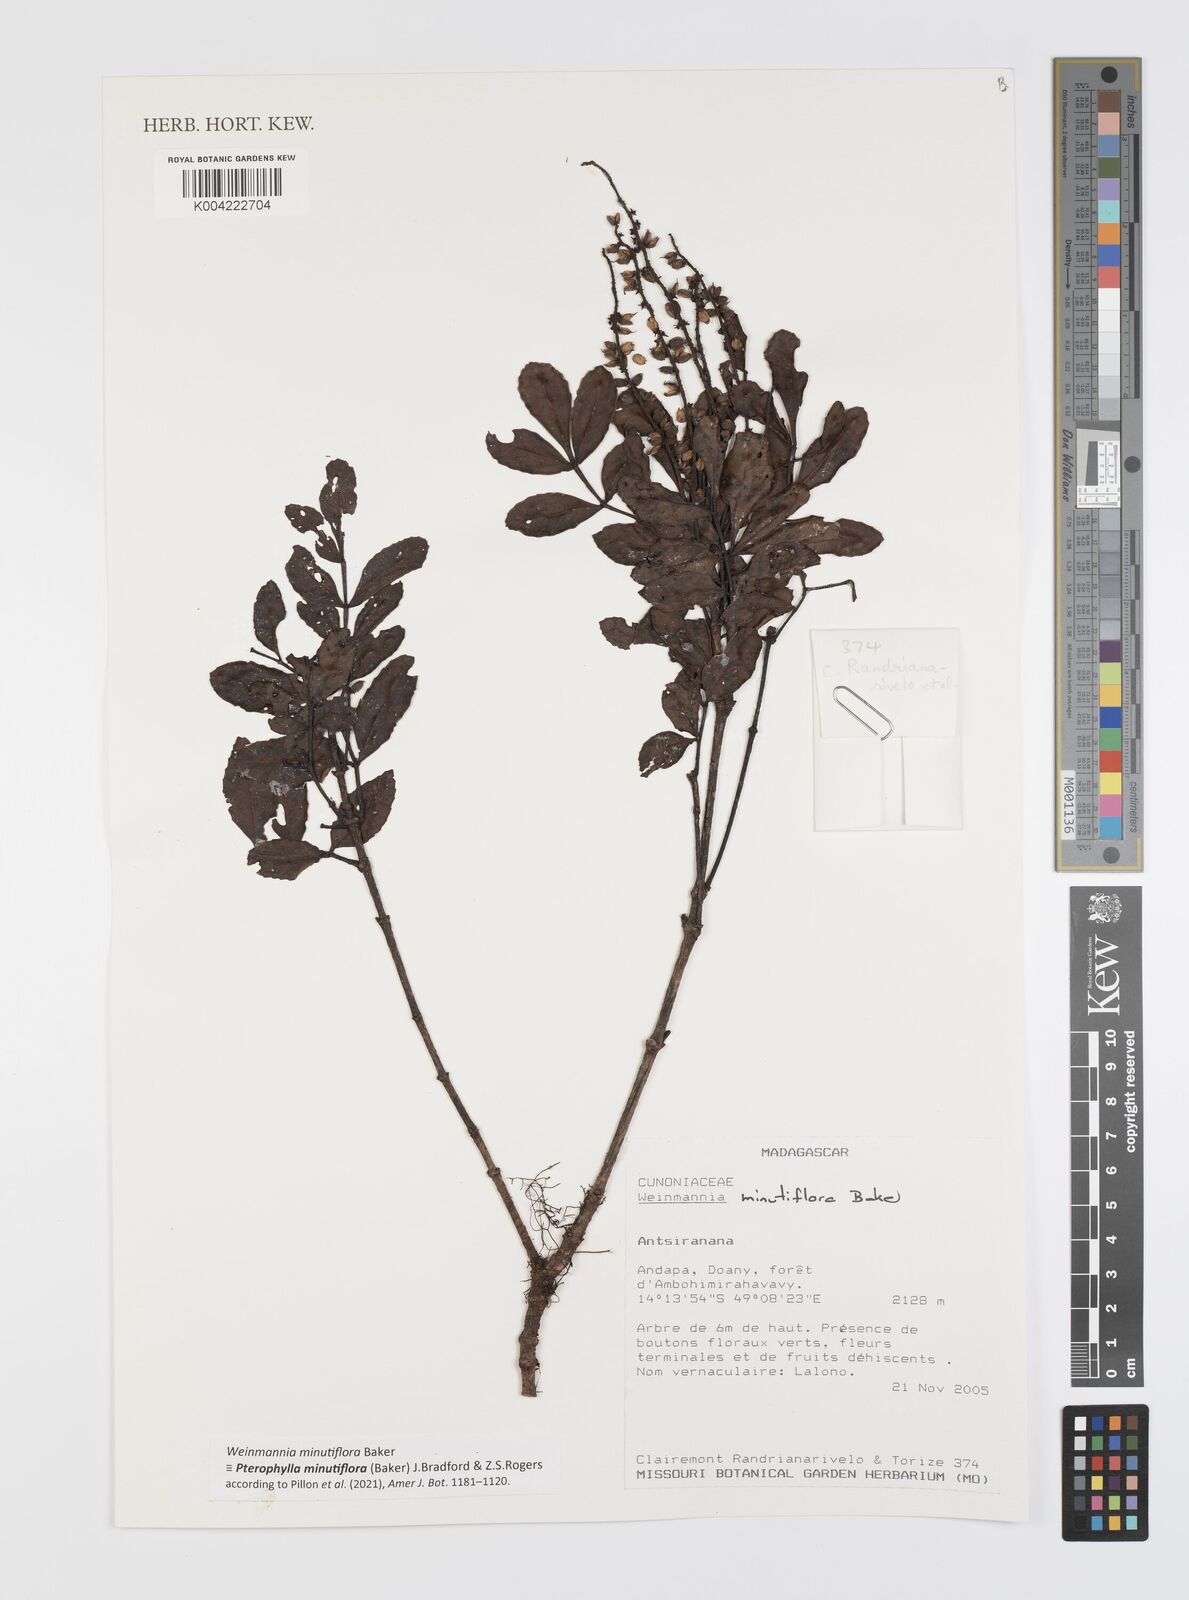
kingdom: Plantae
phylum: Tracheophyta
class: Magnoliopsida
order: Oxalidales
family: Cunoniaceae
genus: Pterophylla
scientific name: Pterophylla
